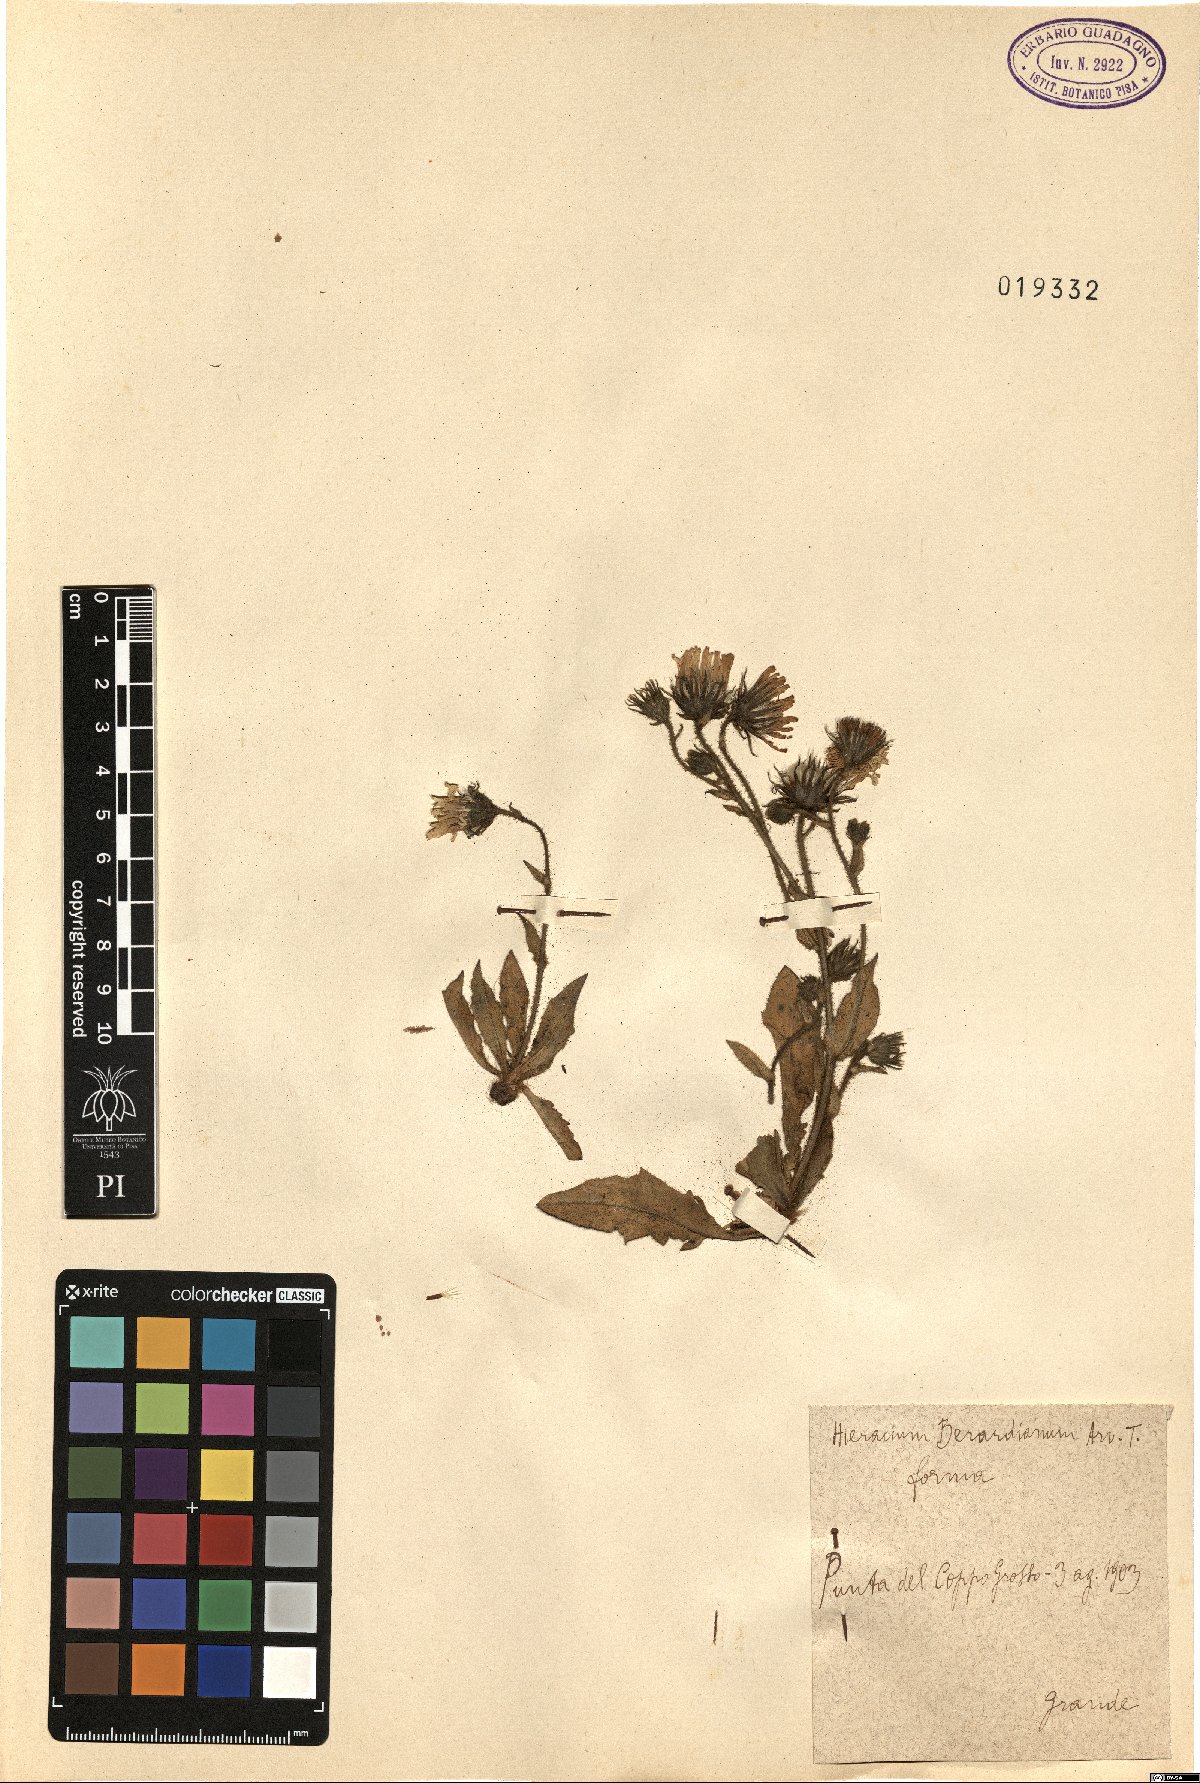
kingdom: Plantae
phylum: Tracheophyta
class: Magnoliopsida
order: Asterales
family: Asteraceae
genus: Hieracium
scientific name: Hieracium amplexicaule
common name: Sticky hawkweed
